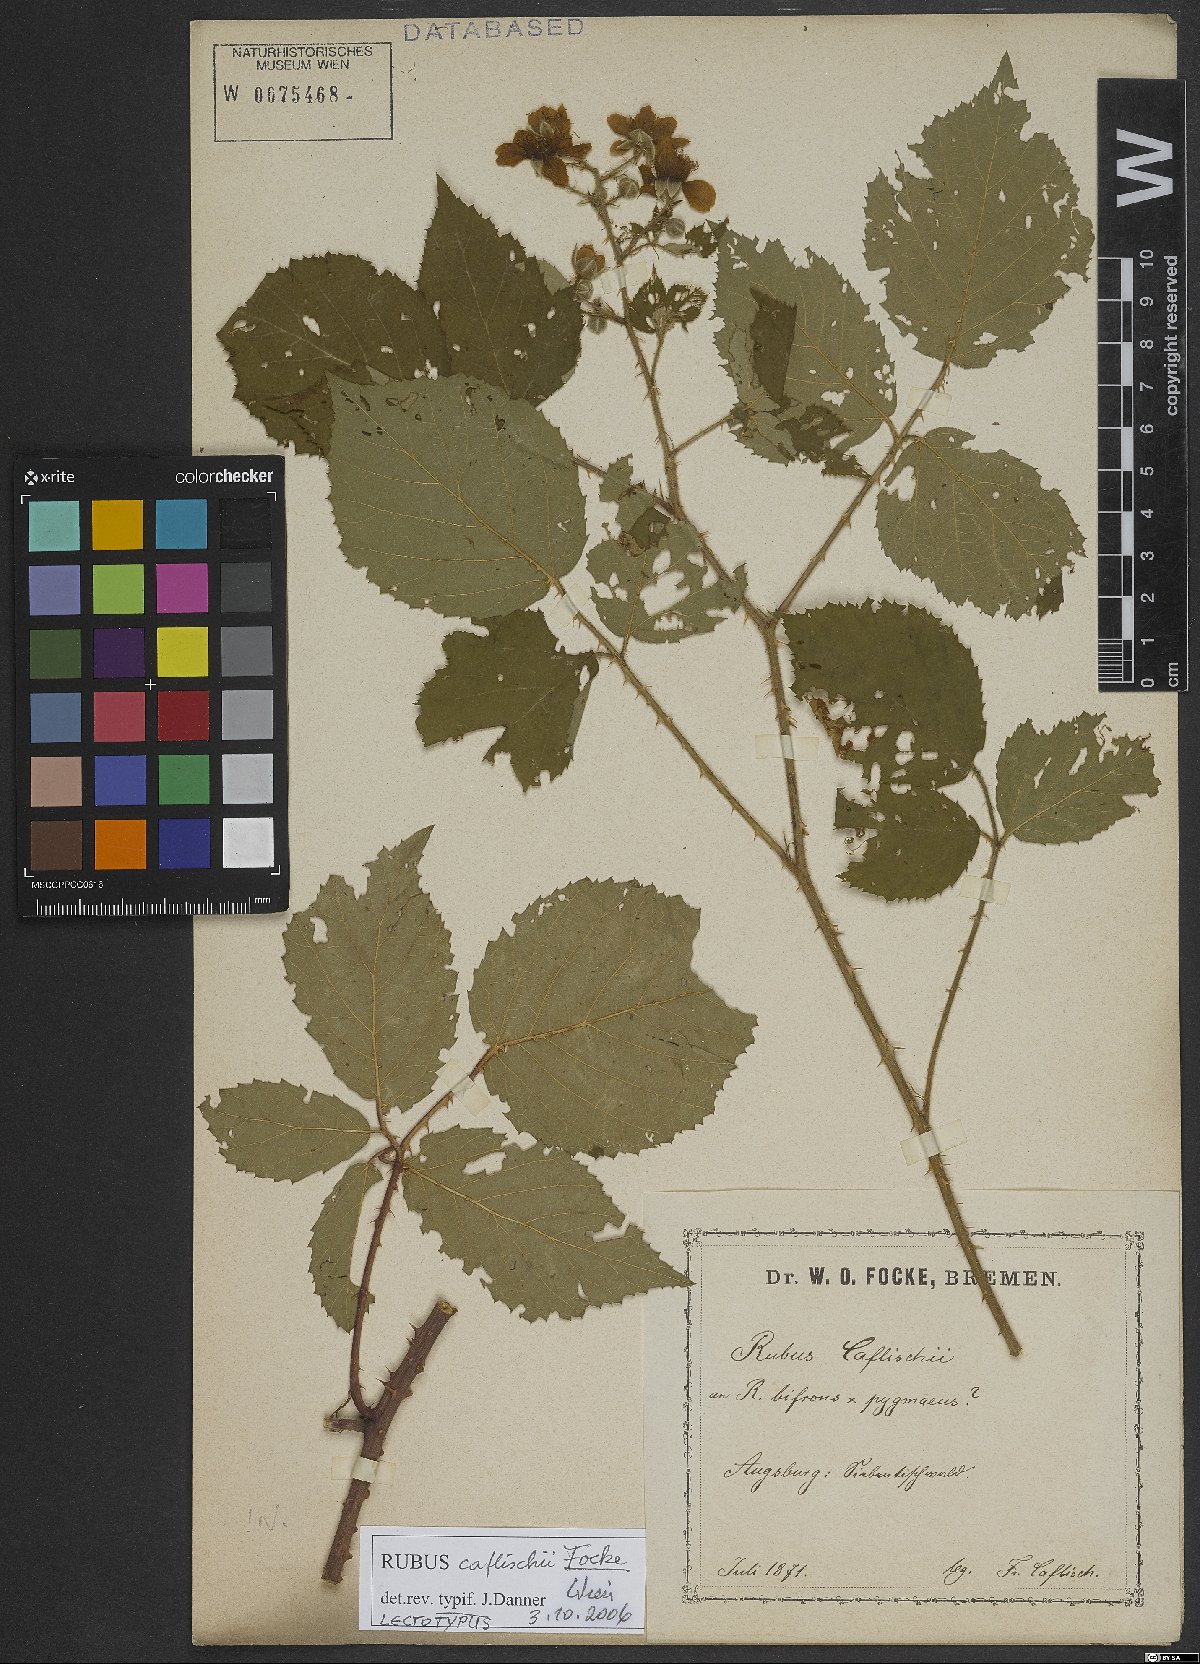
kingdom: Plantae
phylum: Tracheophyta
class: Magnoliopsida
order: Rosales
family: Rosaceae
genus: Rubus
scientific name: Rubus caflischii
